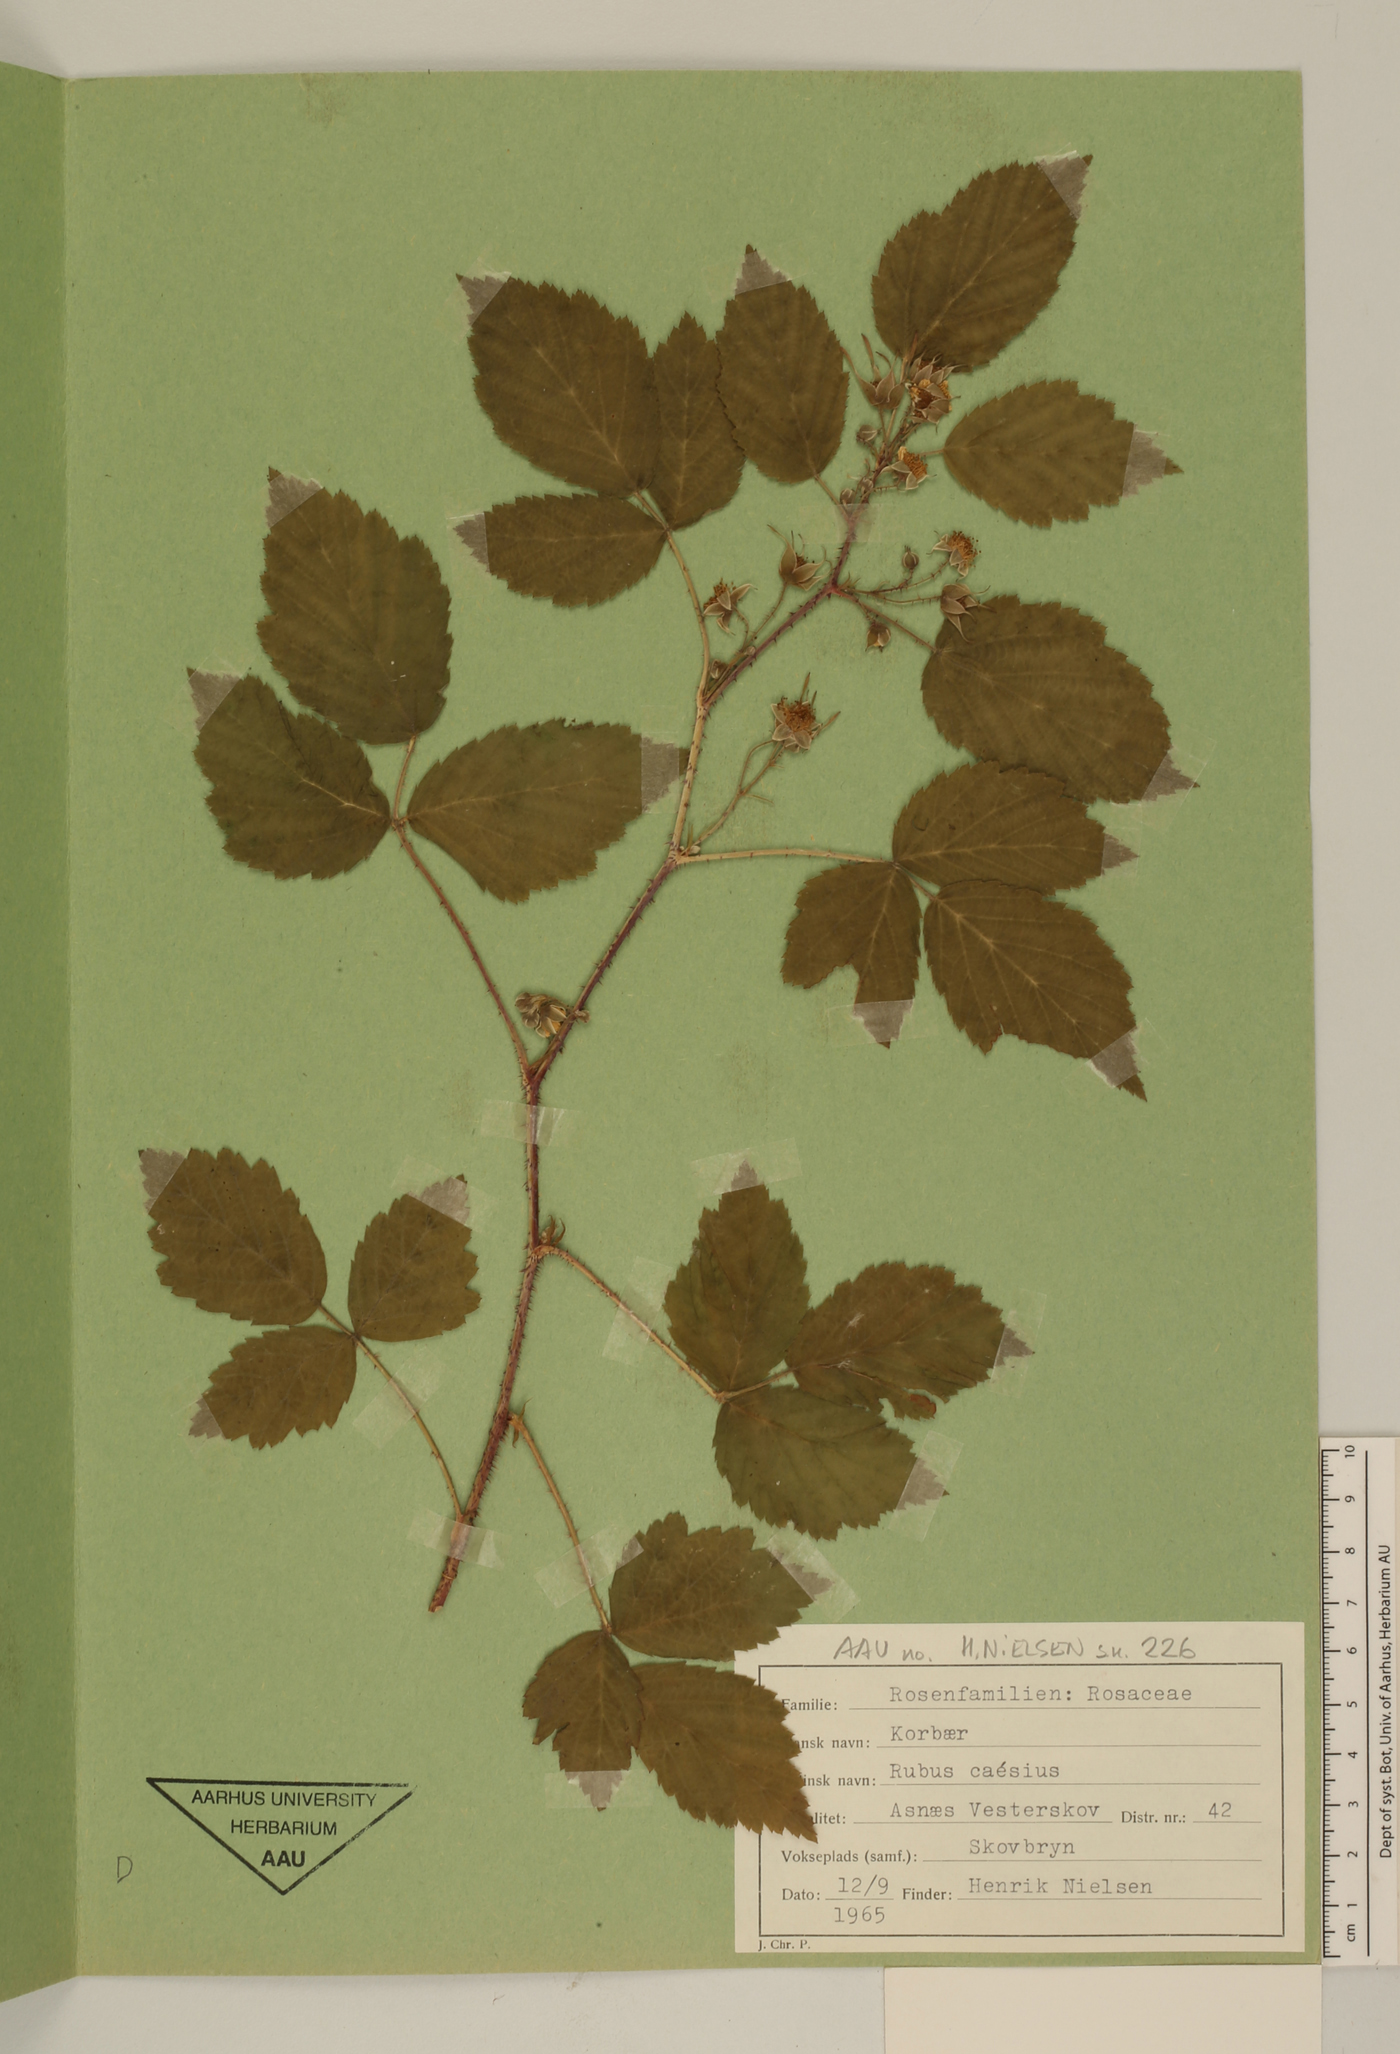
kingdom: Plantae
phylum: Tracheophyta
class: Magnoliopsida
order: Rosales
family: Rosaceae
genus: Rubus
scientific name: Rubus caesius
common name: Dewberry
